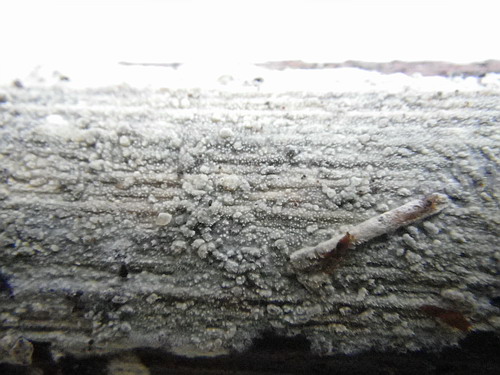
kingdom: Fungi
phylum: Basidiomycota
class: Agaricomycetes
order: Polyporales
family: Phanerochaetaceae
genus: Hyphodermella
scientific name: Hyphodermella corrugata
